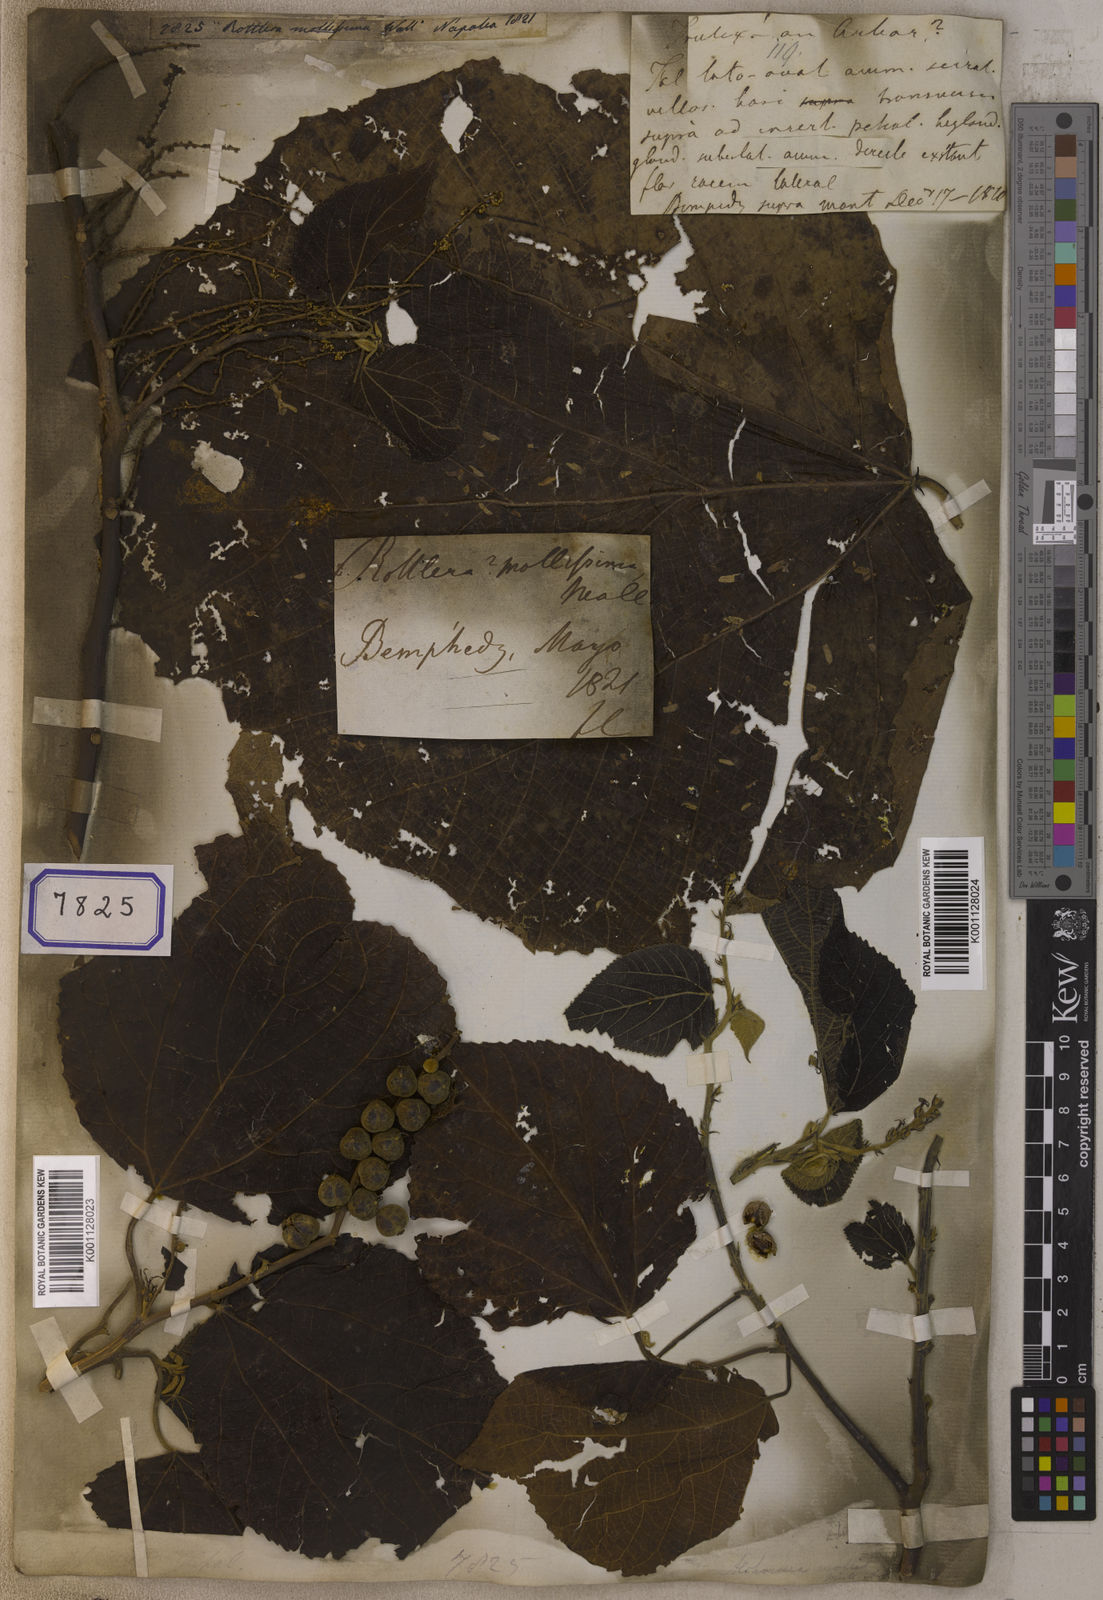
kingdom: Plantae
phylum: Tracheophyta
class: Magnoliopsida
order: Malpighiales
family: Euphorbiaceae
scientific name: Euphorbiaceae
